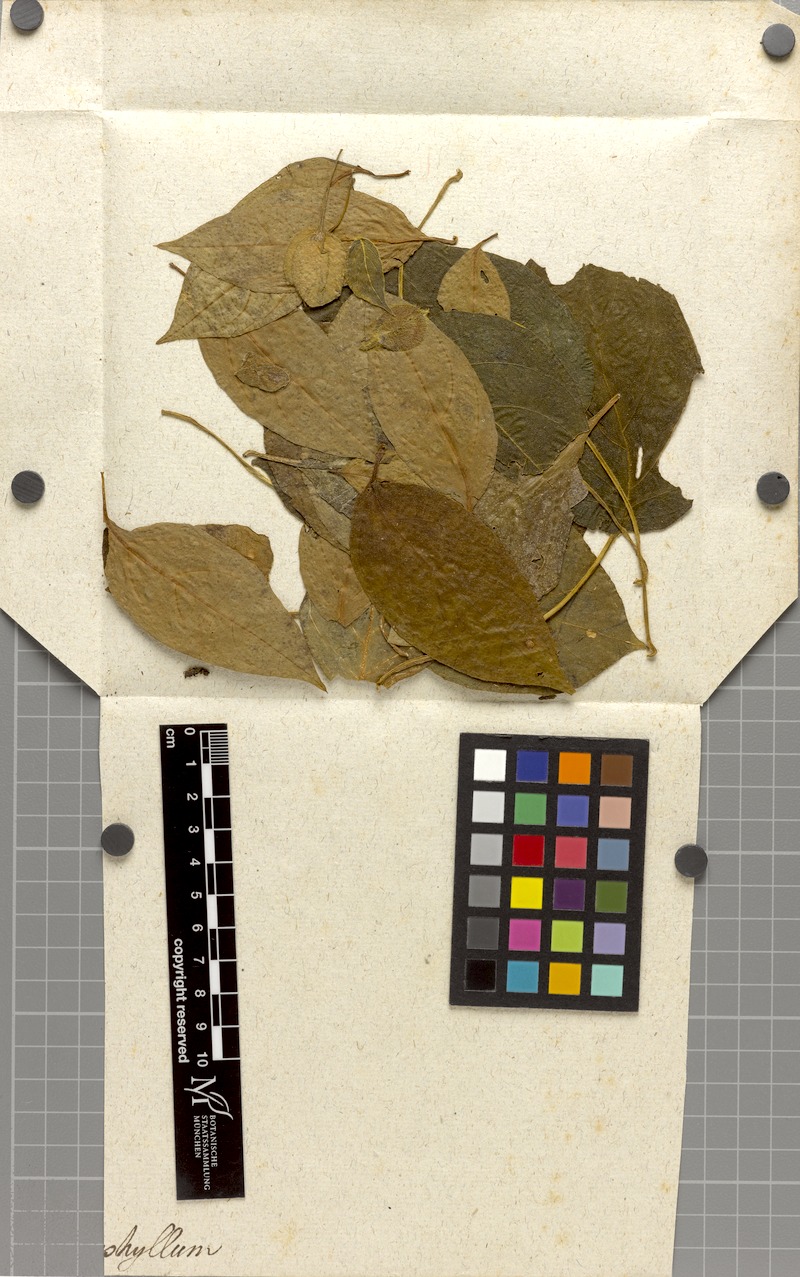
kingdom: Plantae
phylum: Tracheophyta
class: Magnoliopsida
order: Lamiales
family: Acanthaceae
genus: Mendoncia
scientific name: Mendoncia puberula
